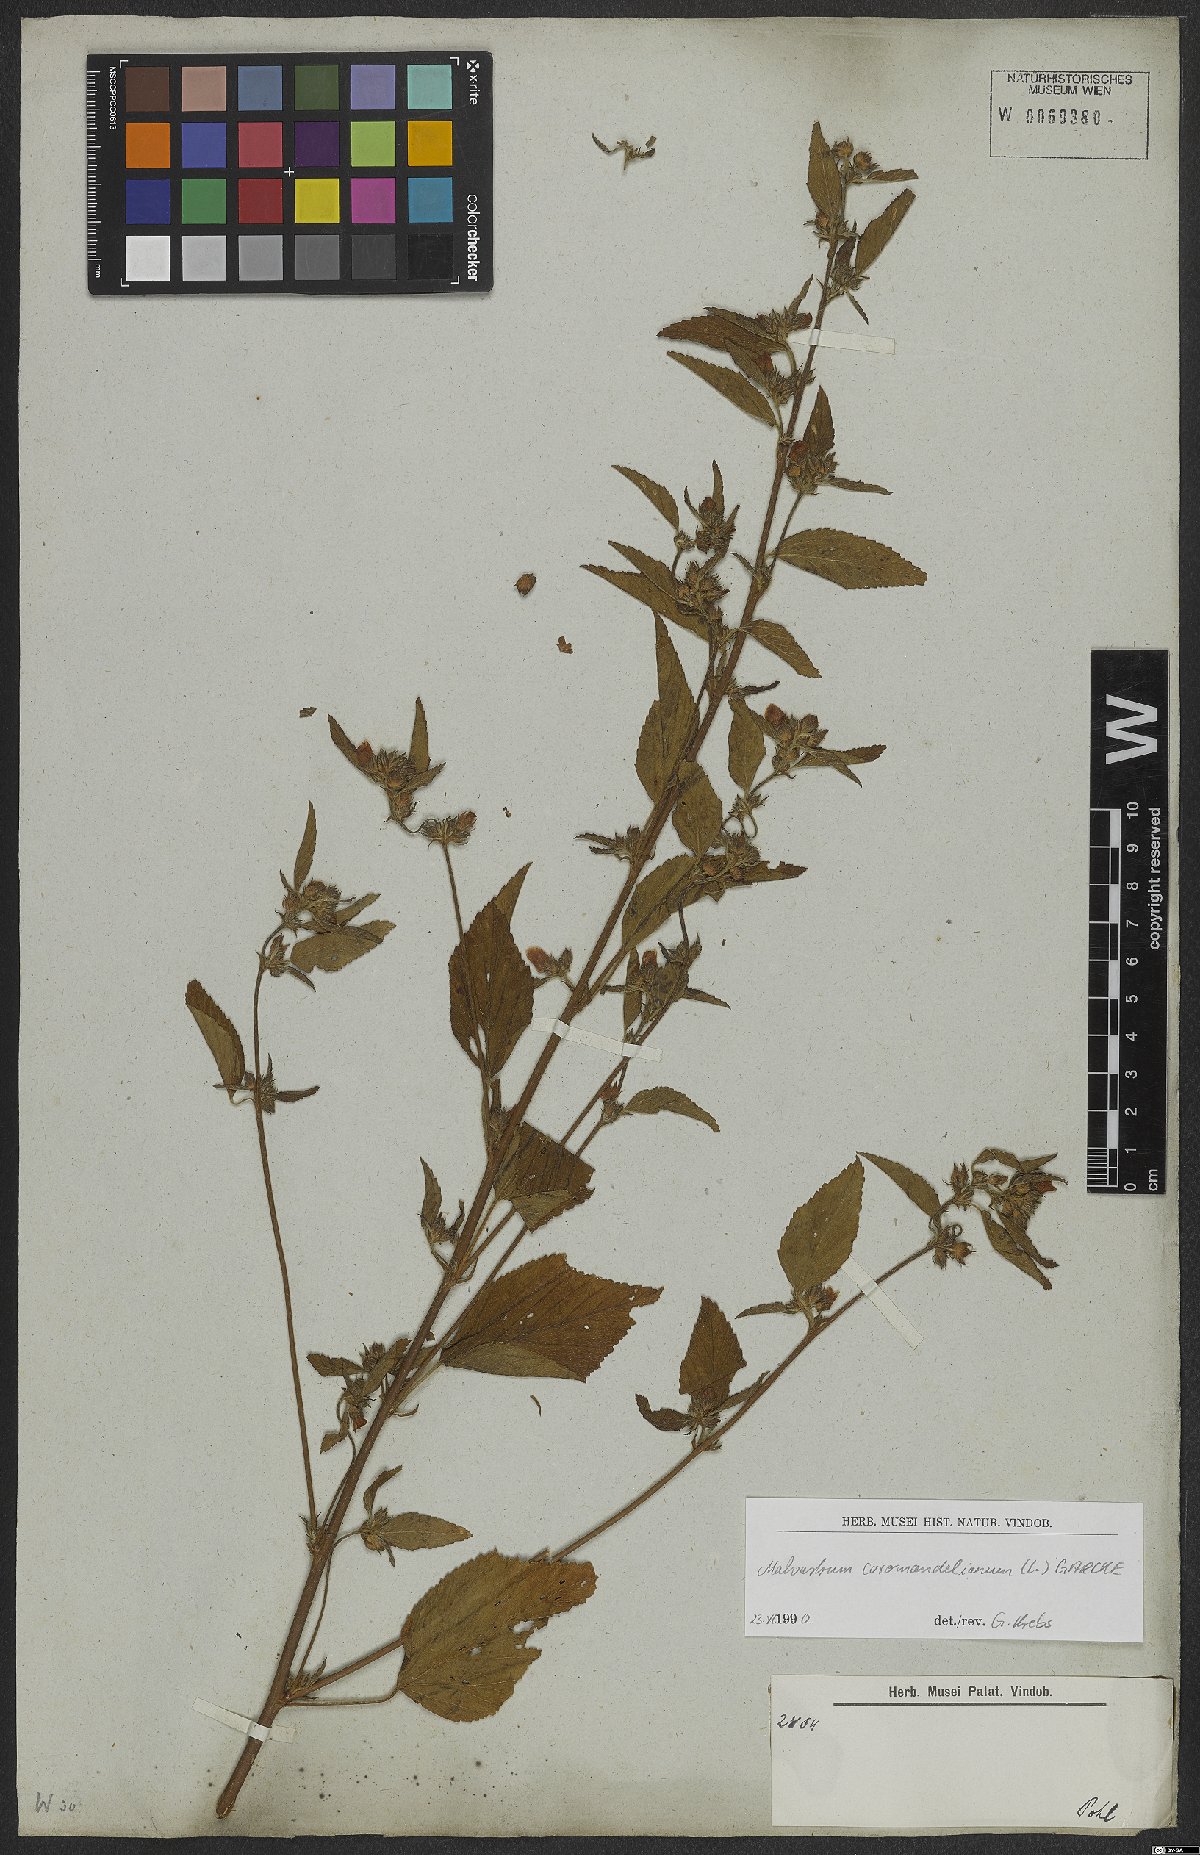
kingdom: Plantae
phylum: Tracheophyta
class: Magnoliopsida
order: Malvales
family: Malvaceae
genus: Malvastrum
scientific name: Malvastrum coromandelianum
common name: Threelobe false mallow
